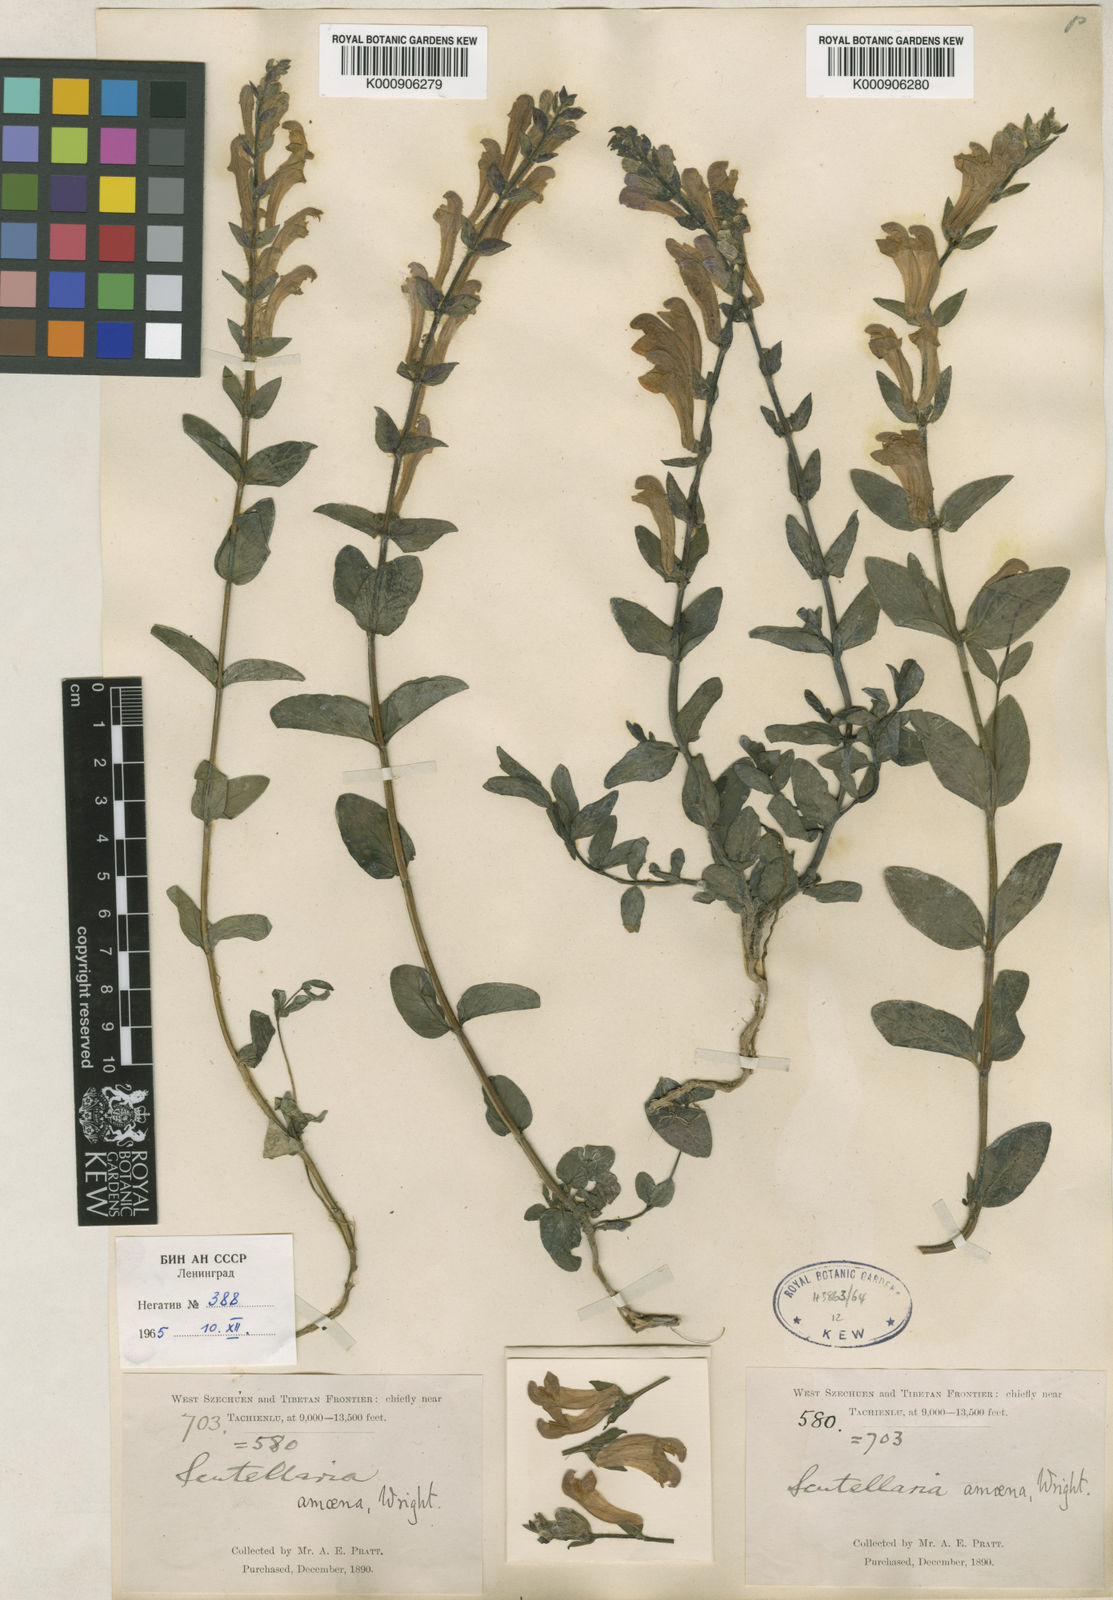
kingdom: Plantae
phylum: Tracheophyta
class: Magnoliopsida
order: Lamiales
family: Lamiaceae
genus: Scutellaria
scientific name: Scutellaria amoena
